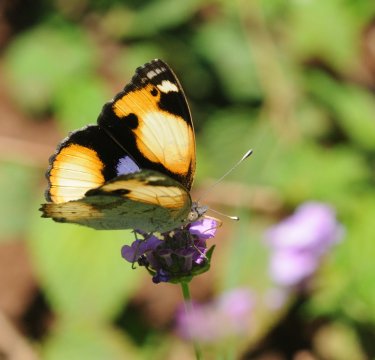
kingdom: Animalia
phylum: Arthropoda
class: Insecta
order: Lepidoptera
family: Nymphalidae
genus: Junonia
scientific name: Junonia hierta
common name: Yellow Pansy
